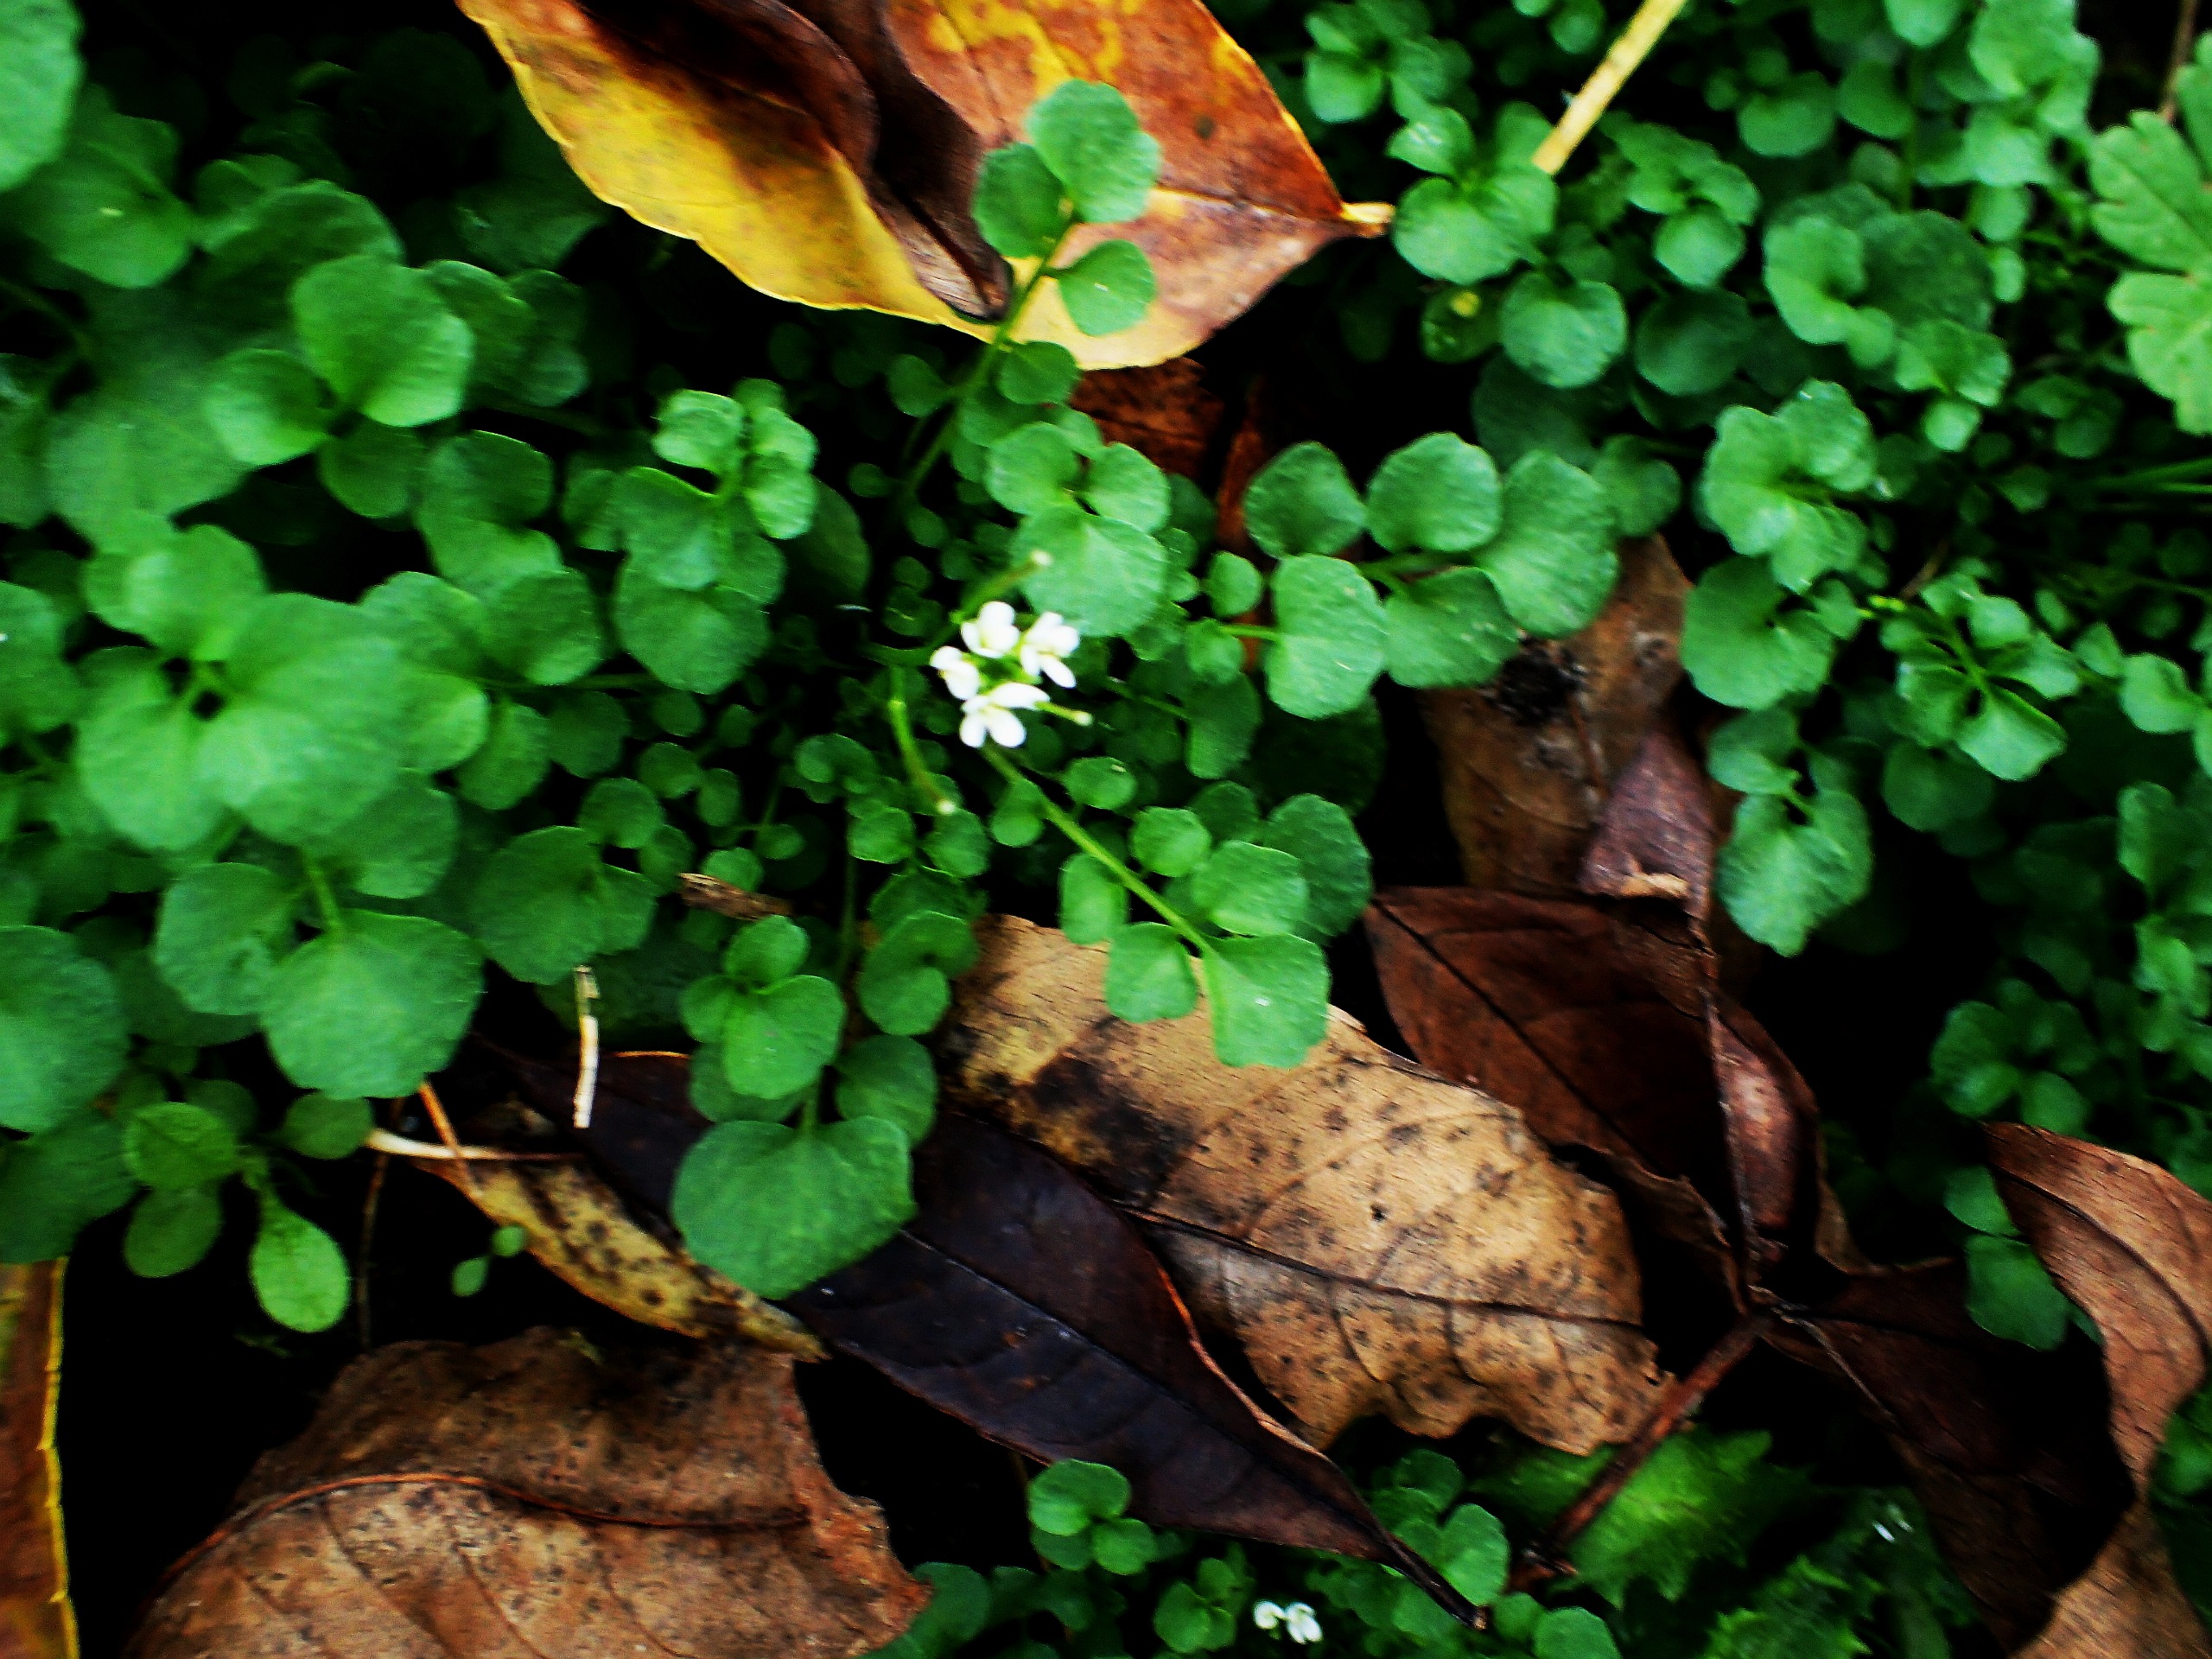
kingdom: Plantae
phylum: Tracheophyta
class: Magnoliopsida
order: Brassicales
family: Brassicaceae
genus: Cardamine
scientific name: Cardamine hirsuta
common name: Roset-springklap
